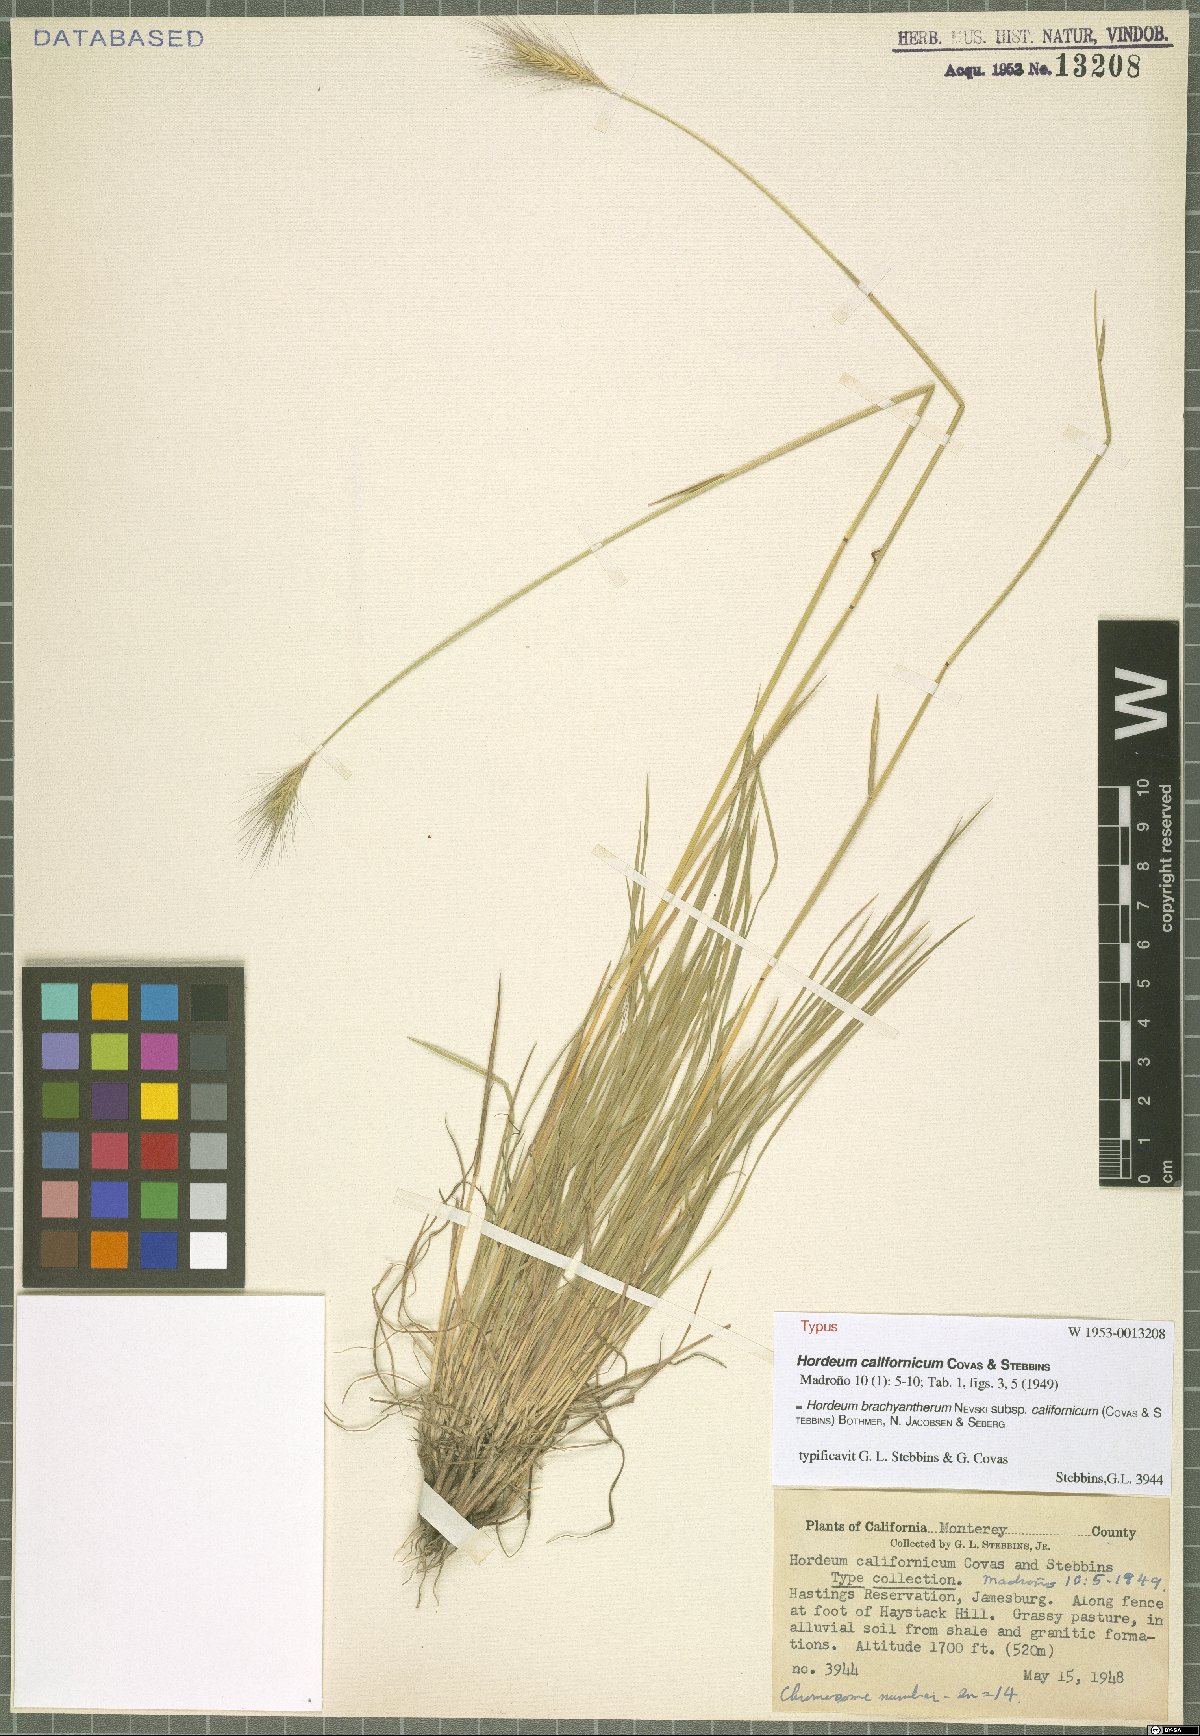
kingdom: Plantae
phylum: Tracheophyta
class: Liliopsida
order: Poales
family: Poaceae
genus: Hordeum
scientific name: Hordeum californicum
